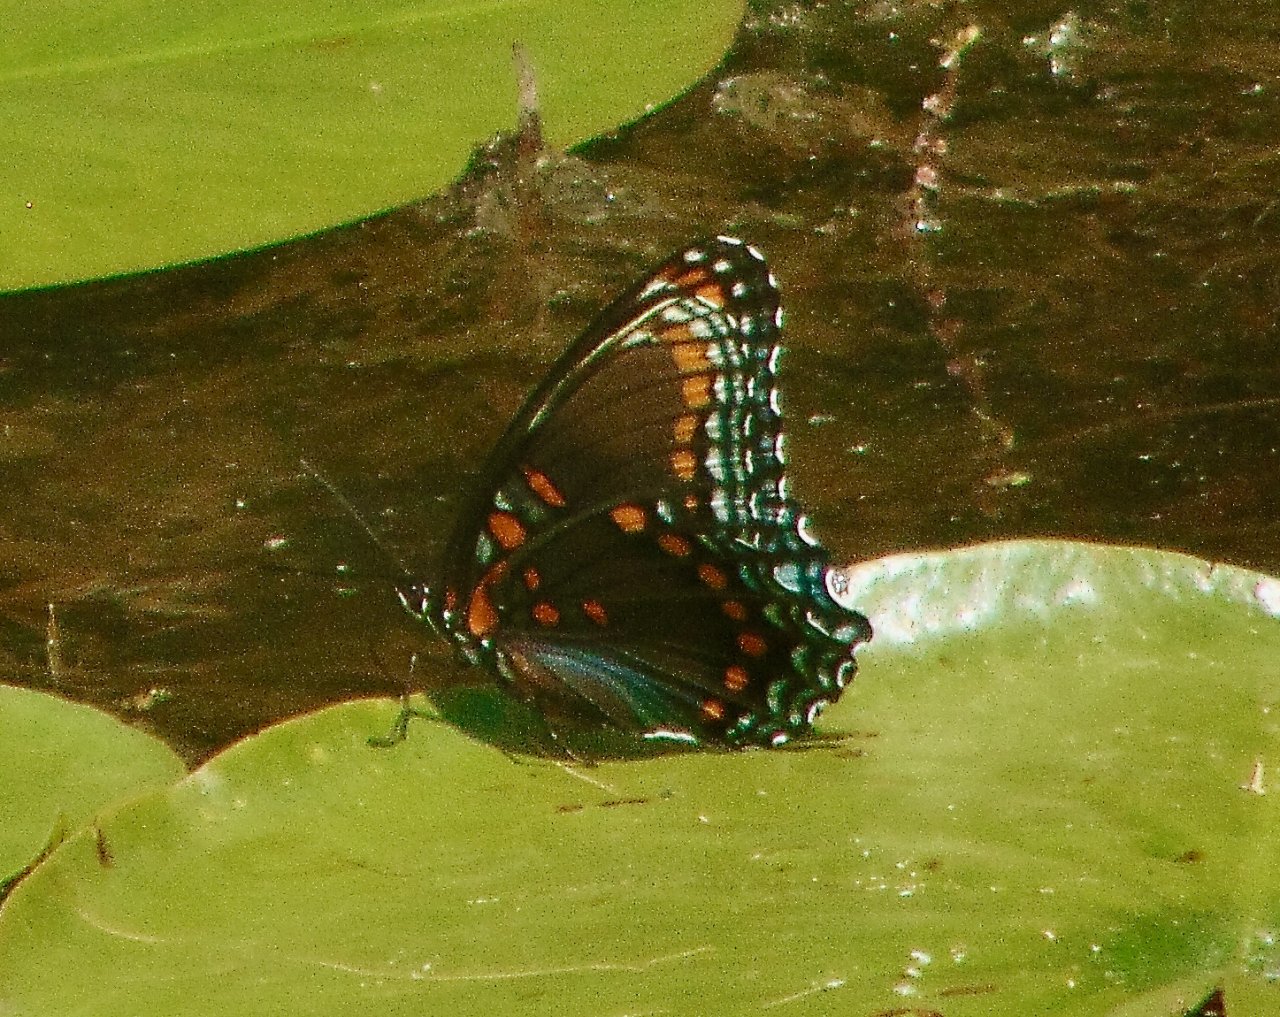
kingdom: Animalia
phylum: Arthropoda
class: Insecta
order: Lepidoptera
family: Nymphalidae
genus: Limenitis
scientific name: Limenitis astyanax
